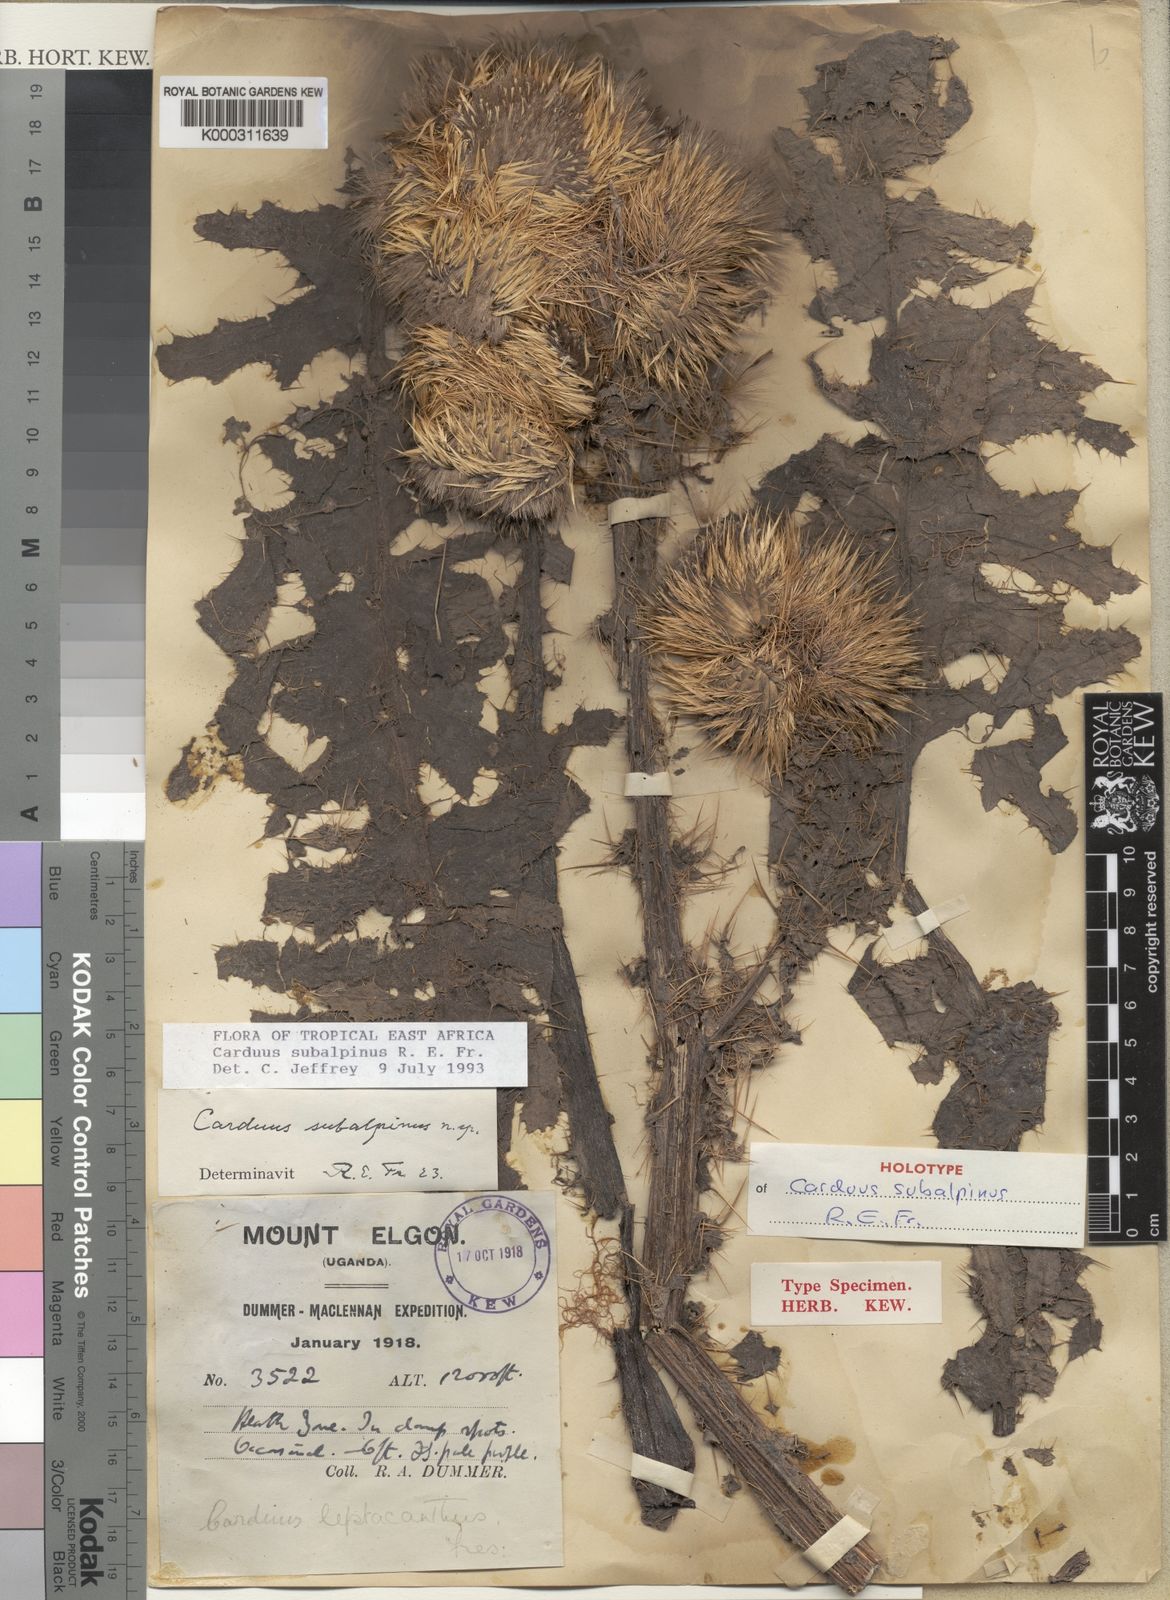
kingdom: Plantae
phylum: Tracheophyta
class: Magnoliopsida
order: Asterales
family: Asteraceae
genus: Carduus
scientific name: Carduus keniensis
